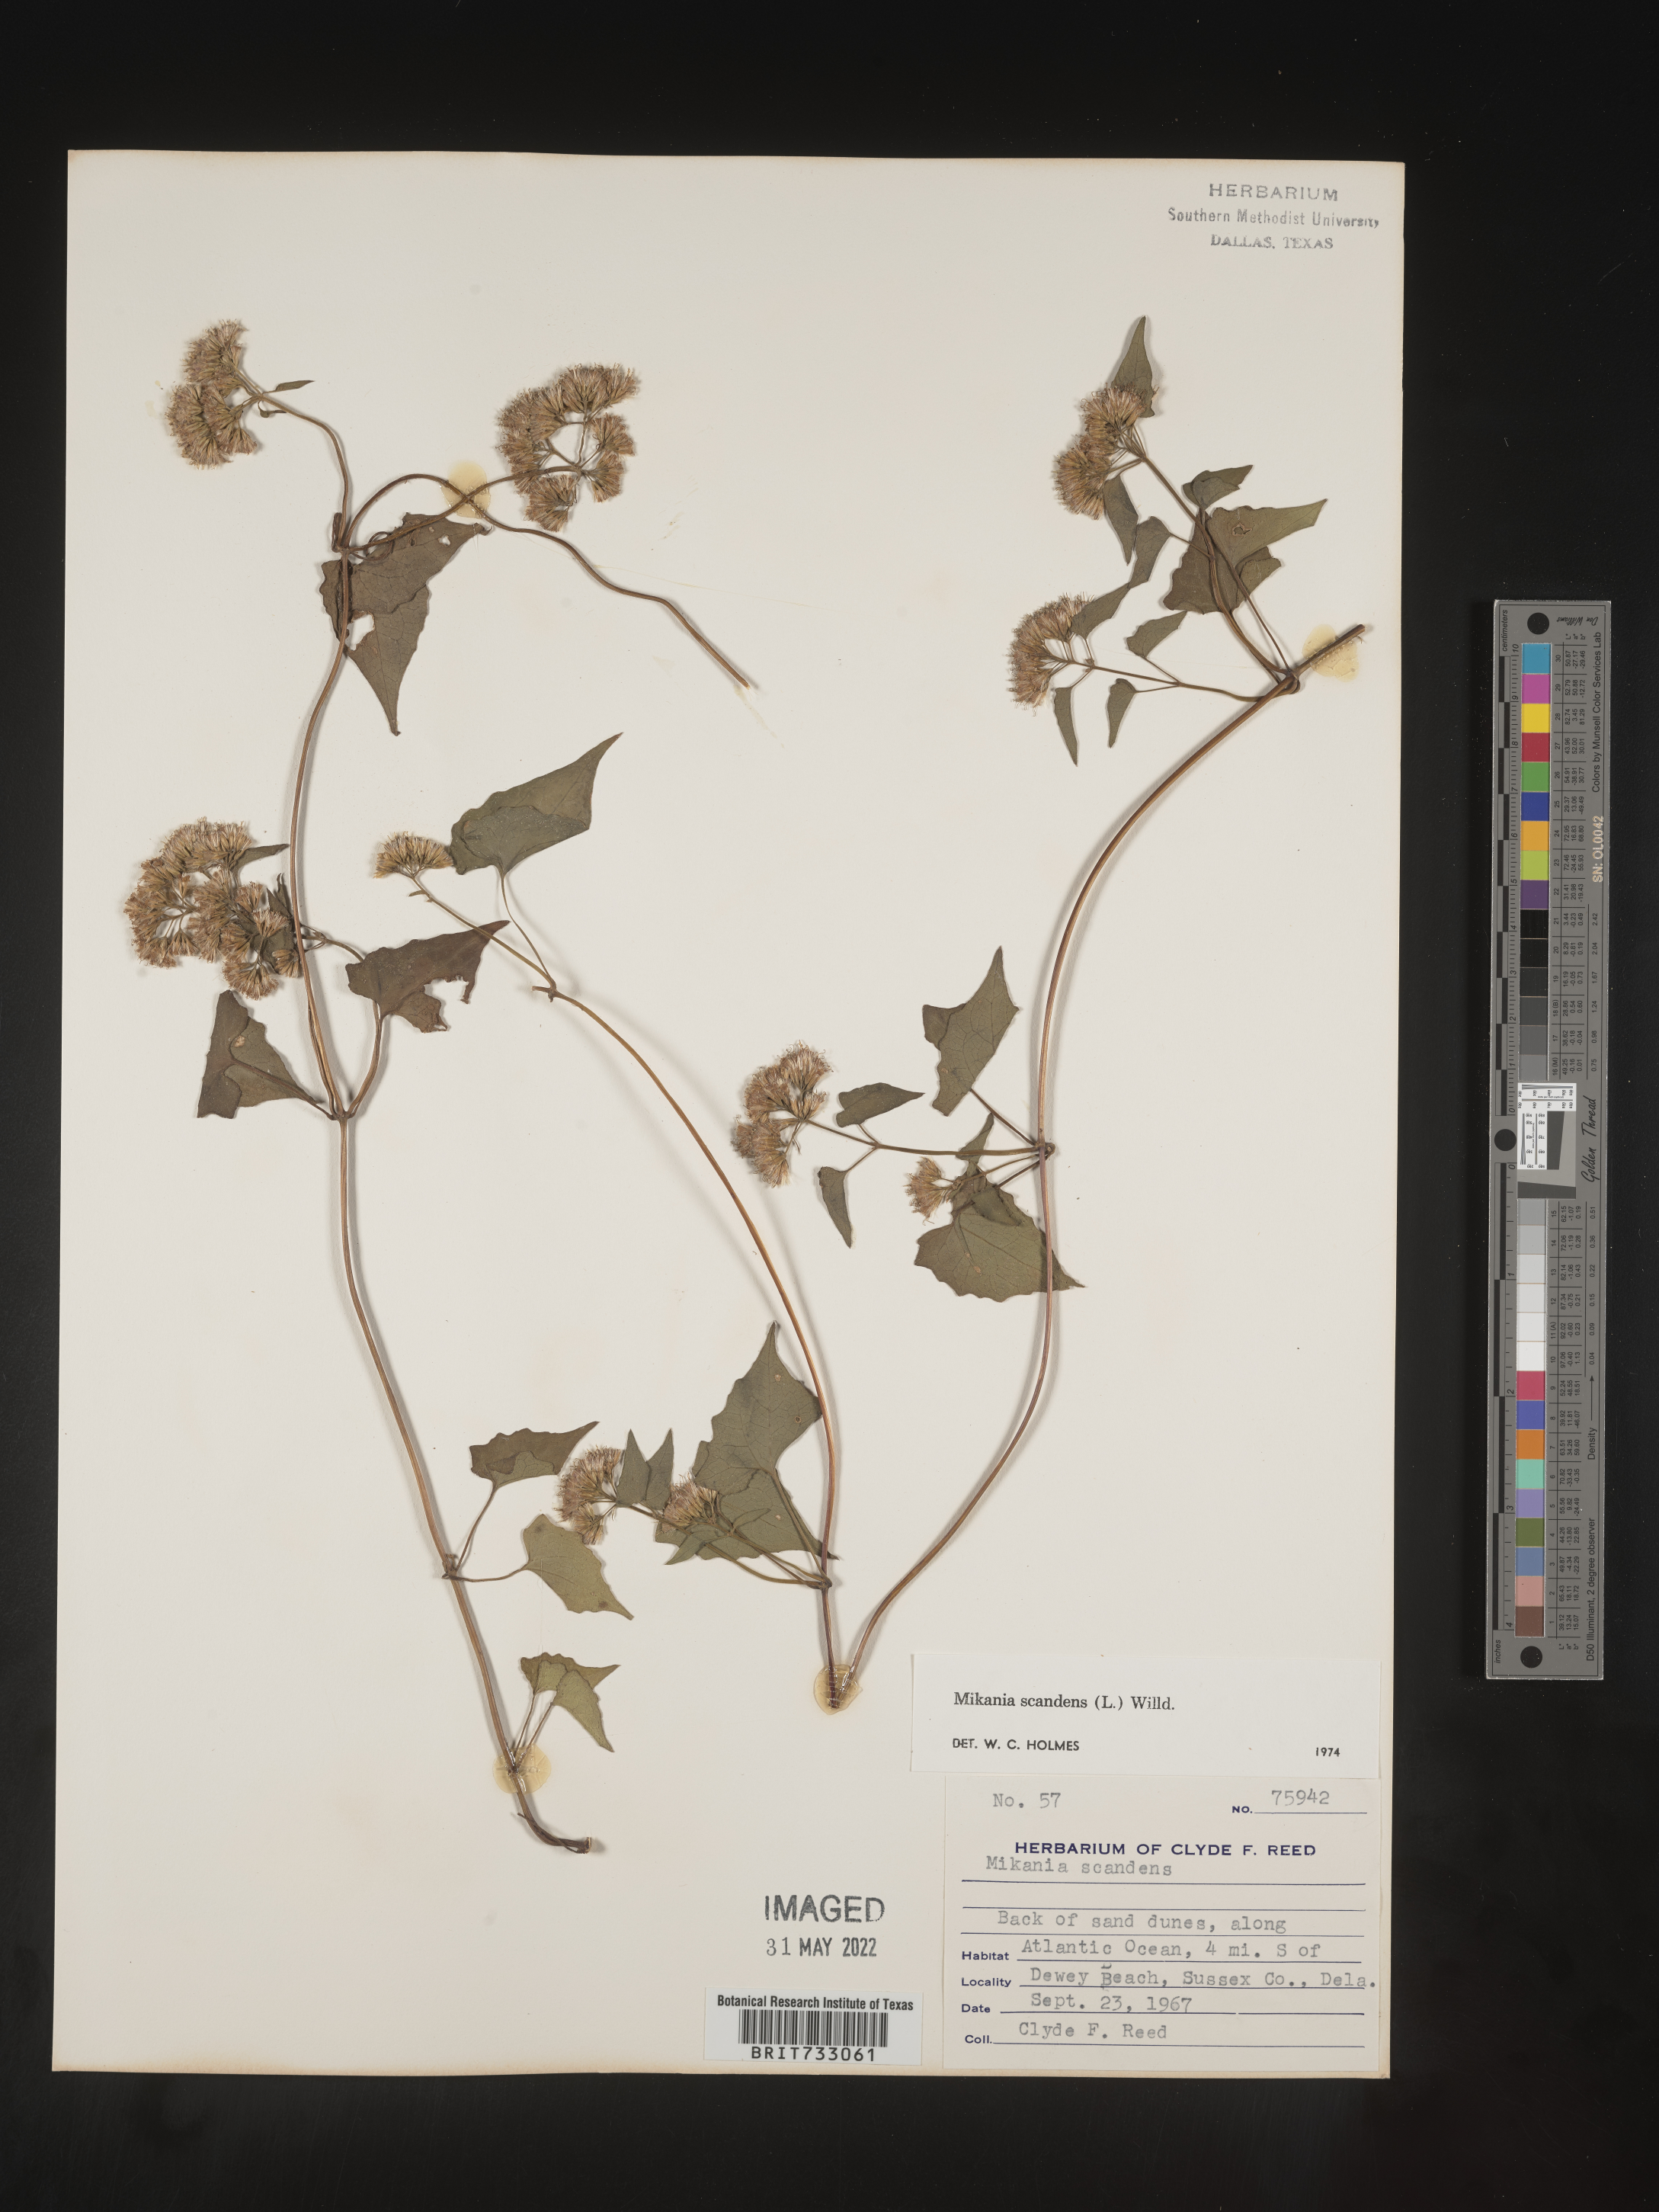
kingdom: Plantae
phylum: Tracheophyta
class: Magnoliopsida
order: Asterales
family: Asteraceae
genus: Mikania
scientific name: Mikania scandens
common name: Climbing hempvine
